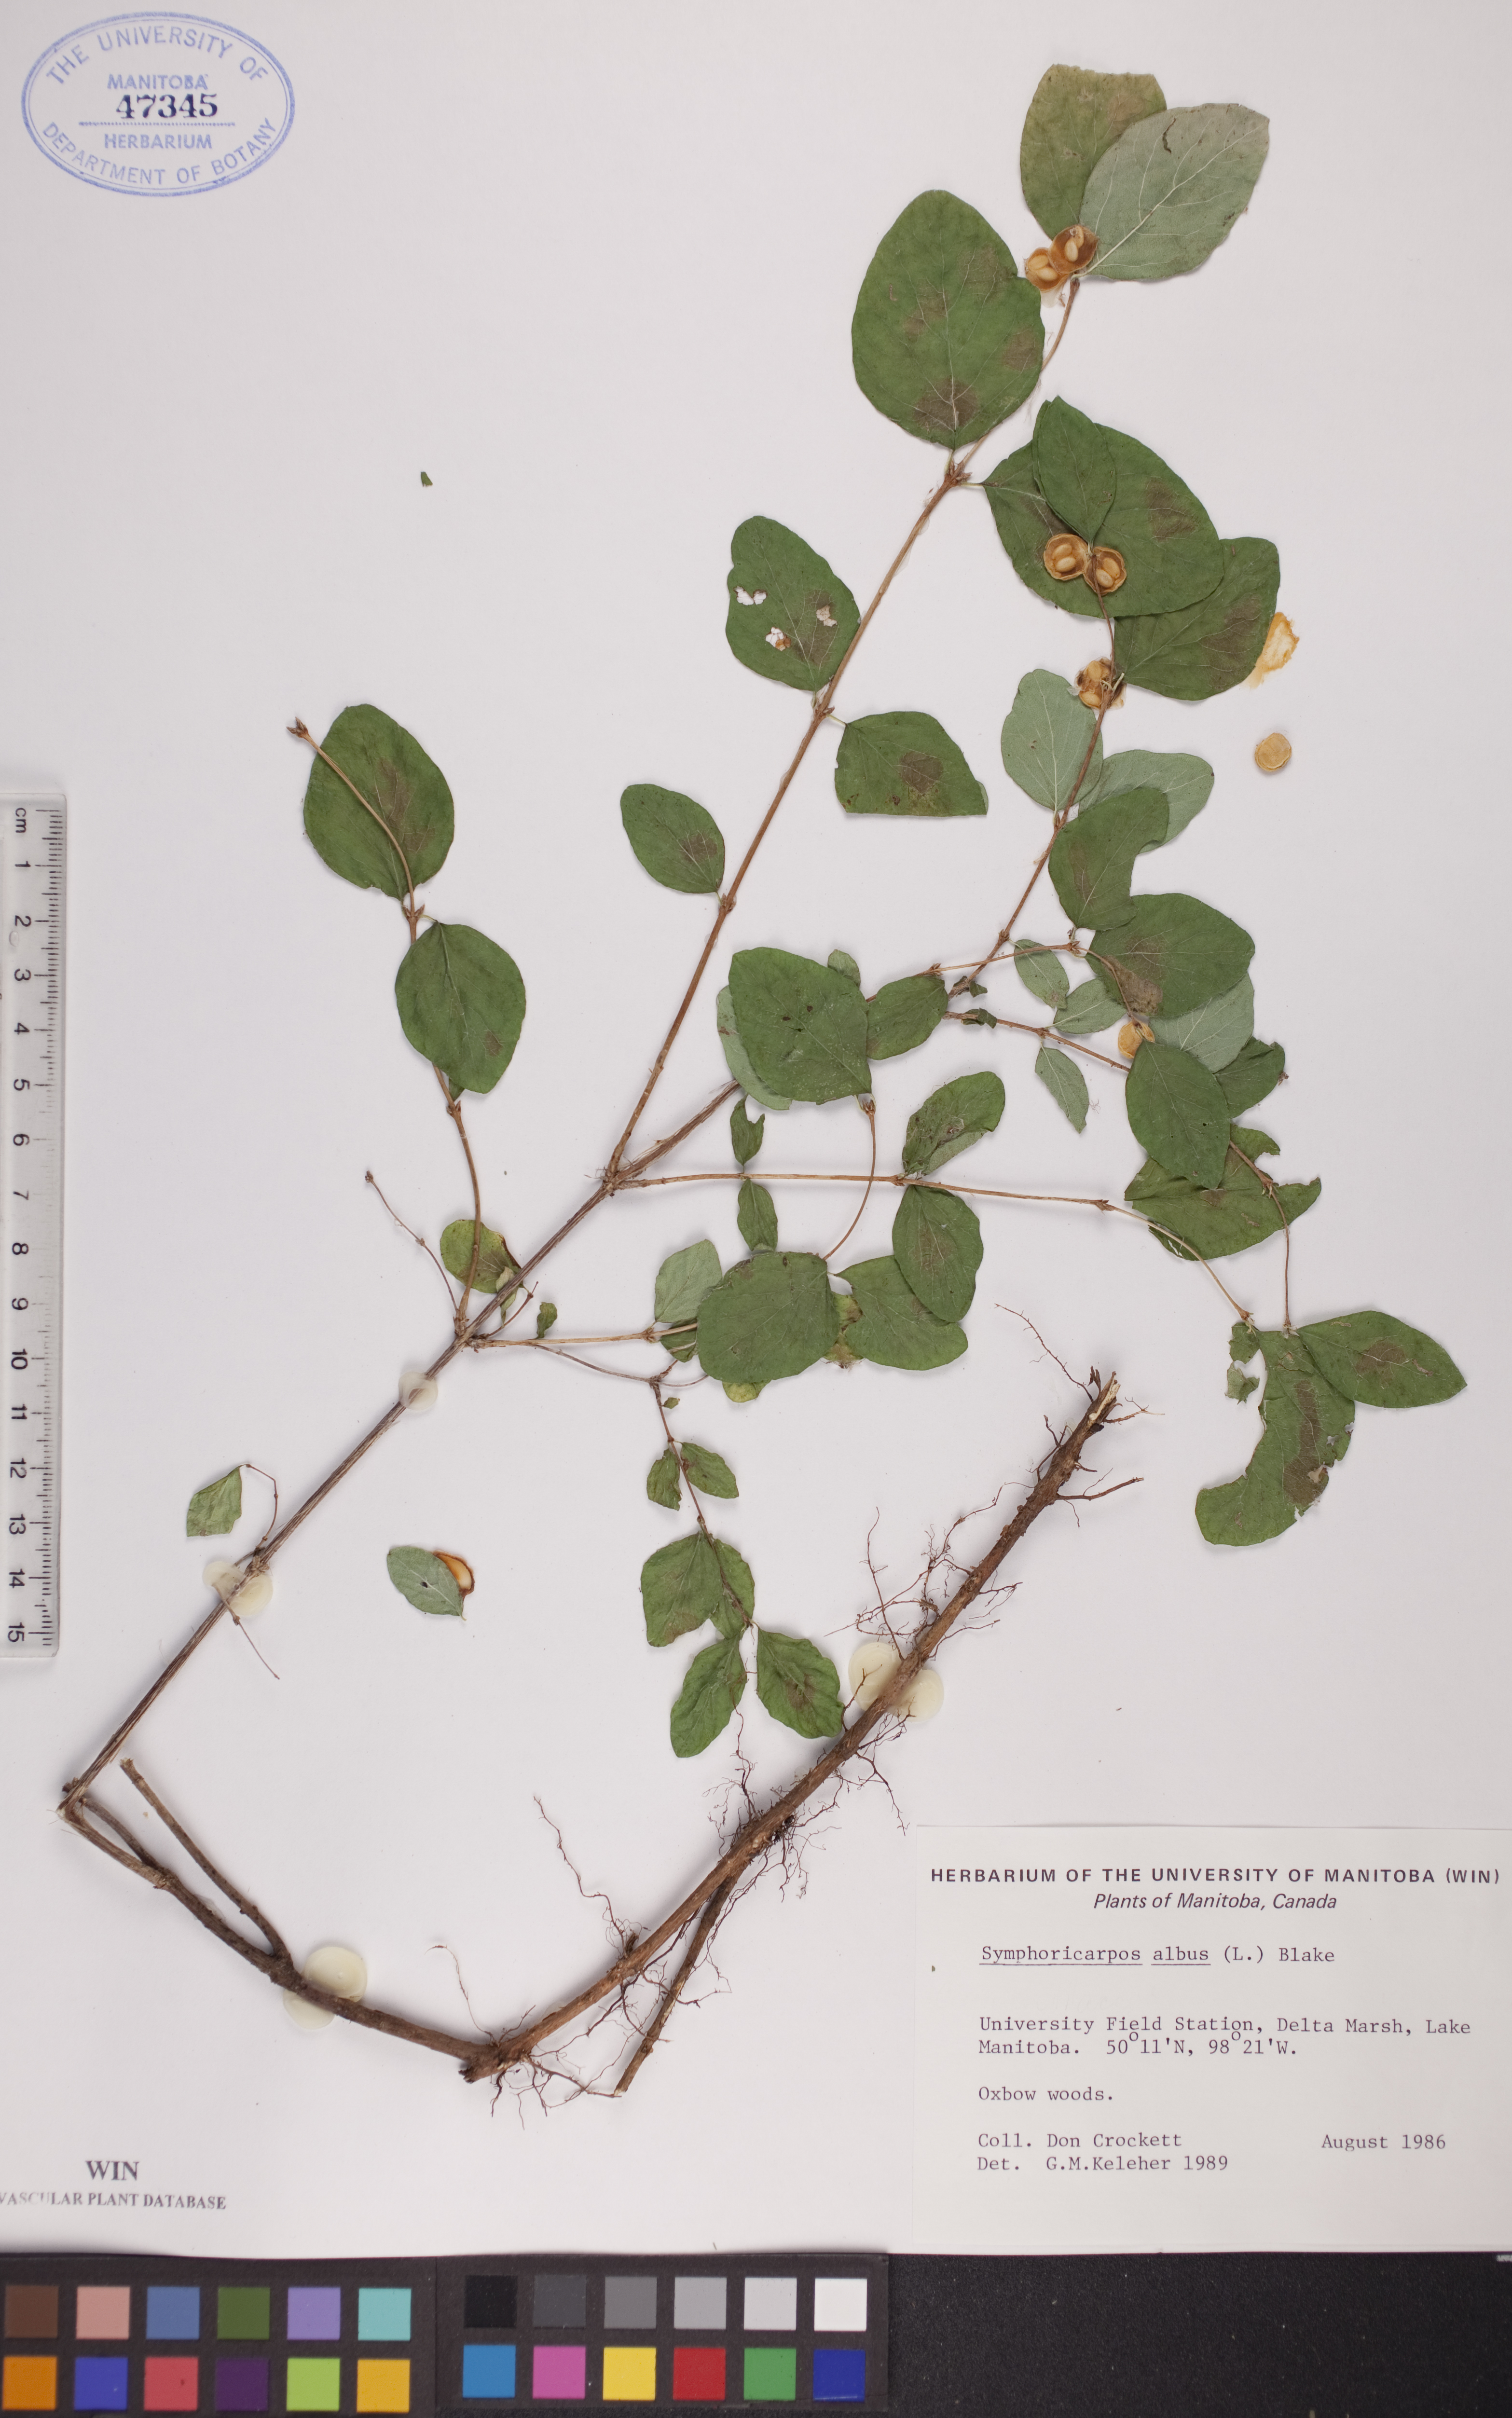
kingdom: Plantae
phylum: Tracheophyta
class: Magnoliopsida
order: Dipsacales
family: Caprifoliaceae
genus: Symphoricarpos
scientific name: Symphoricarpos albus
